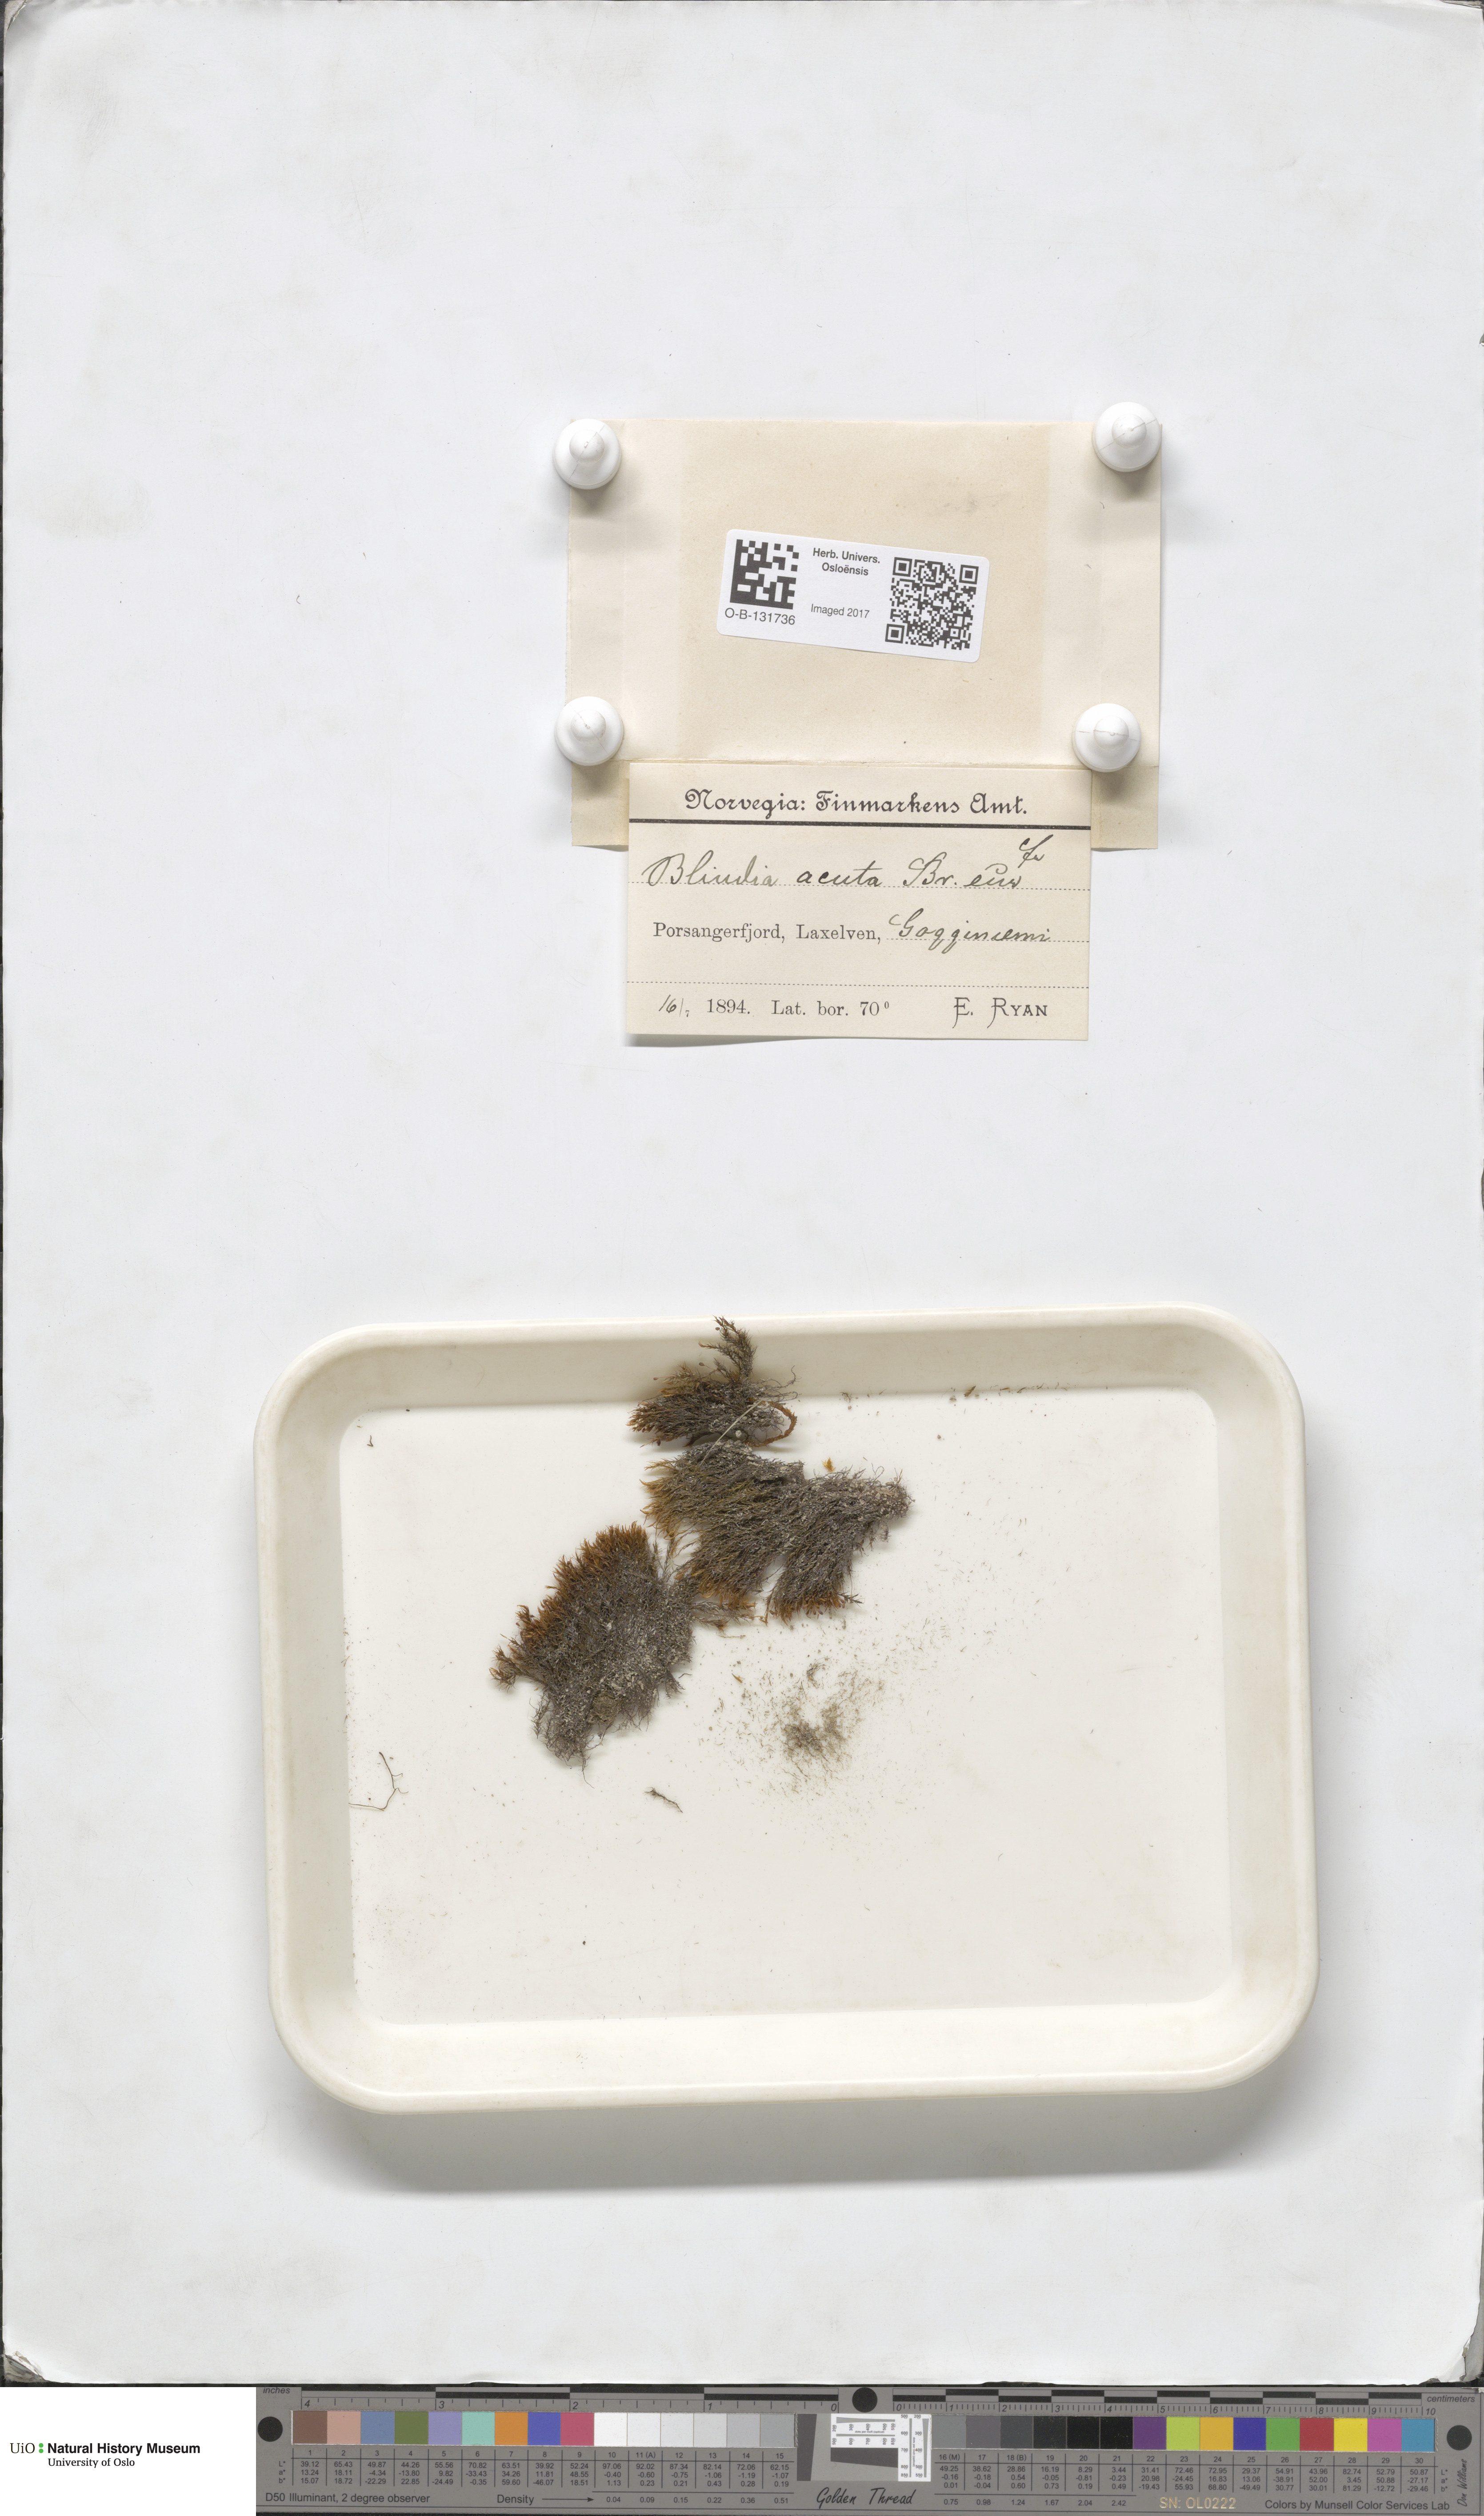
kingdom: Plantae
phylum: Bryophyta
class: Bryopsida
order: Grimmiales
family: Seligeriaceae
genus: Blindia
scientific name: Blindia acuta
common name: Sharp-leaved blind's moss
